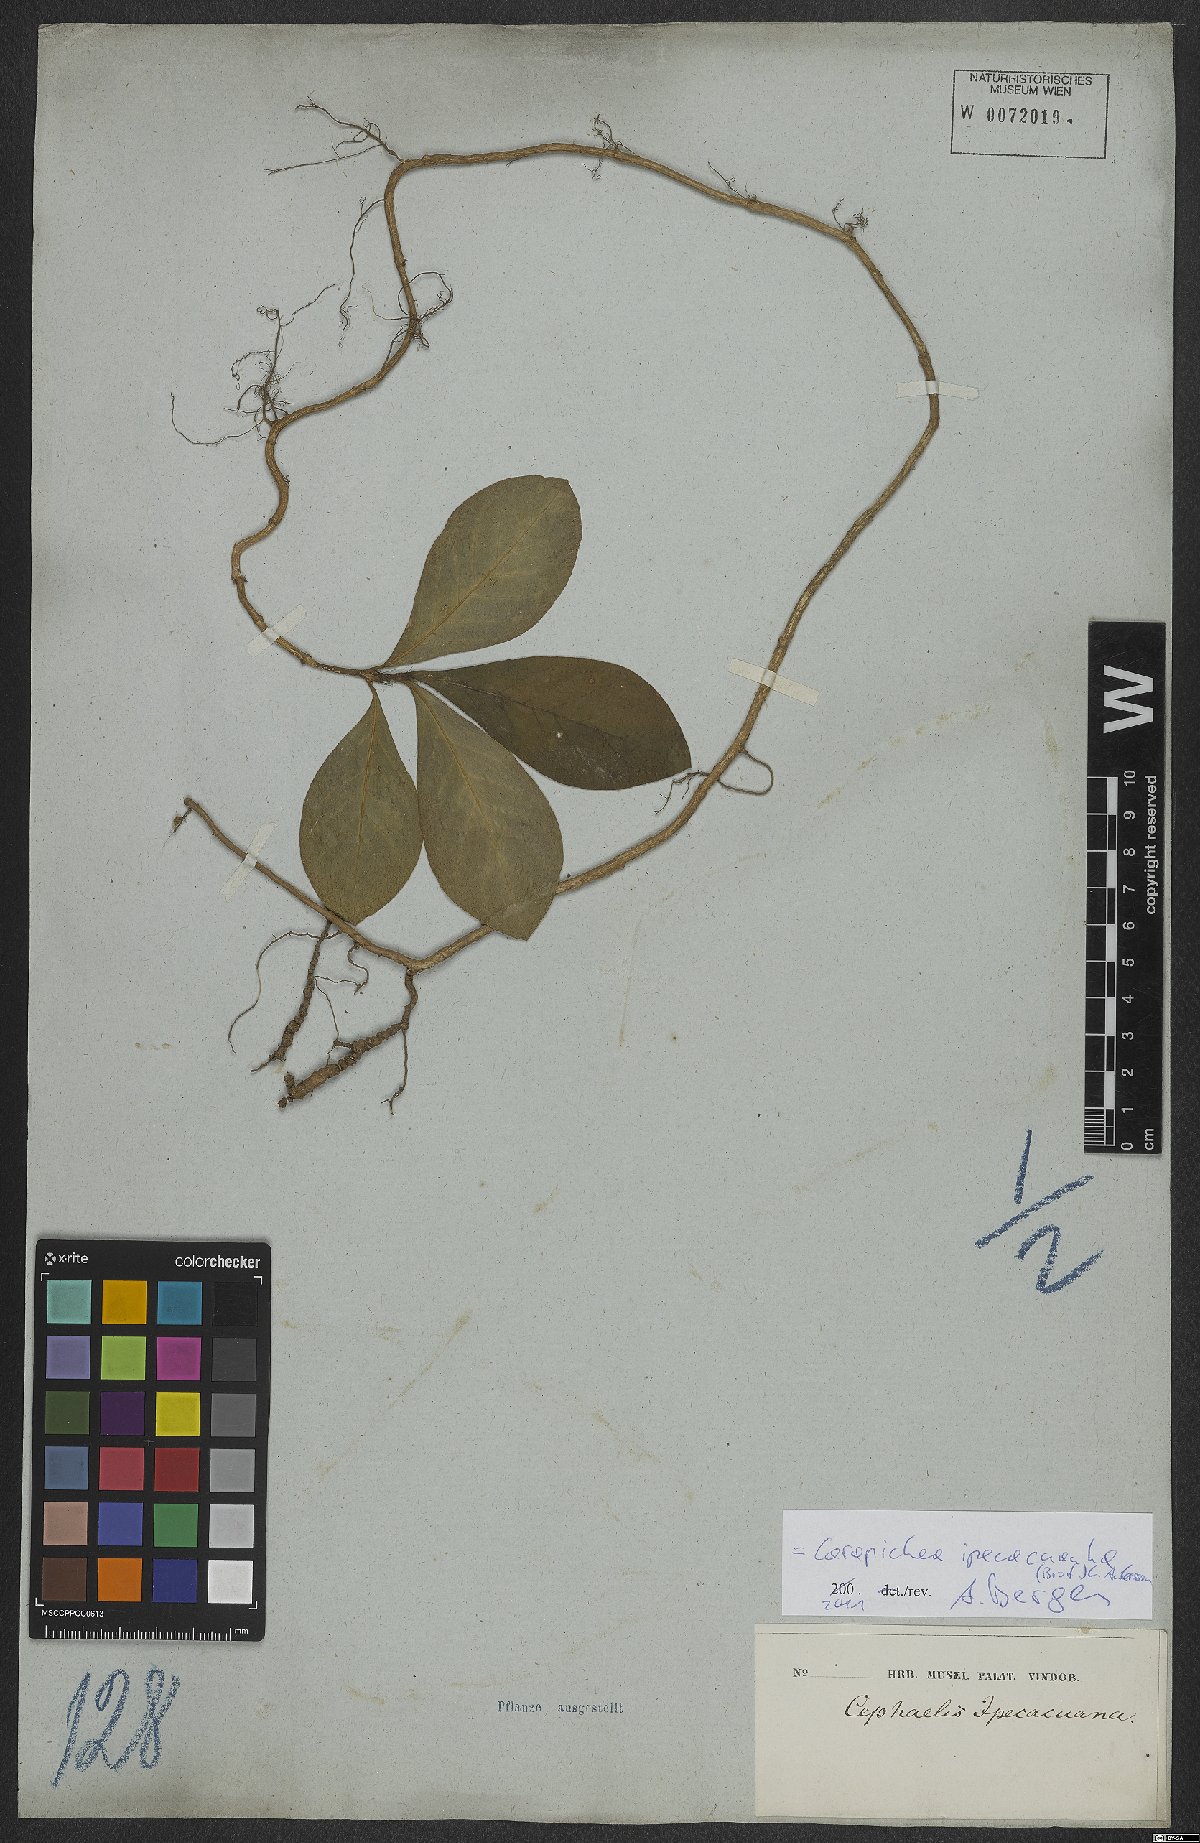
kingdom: Plantae
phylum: Tracheophyta
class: Magnoliopsida
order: Gentianales
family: Rubiaceae
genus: Carapichea
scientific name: Carapichea ipecacuanha
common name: Ipecac
